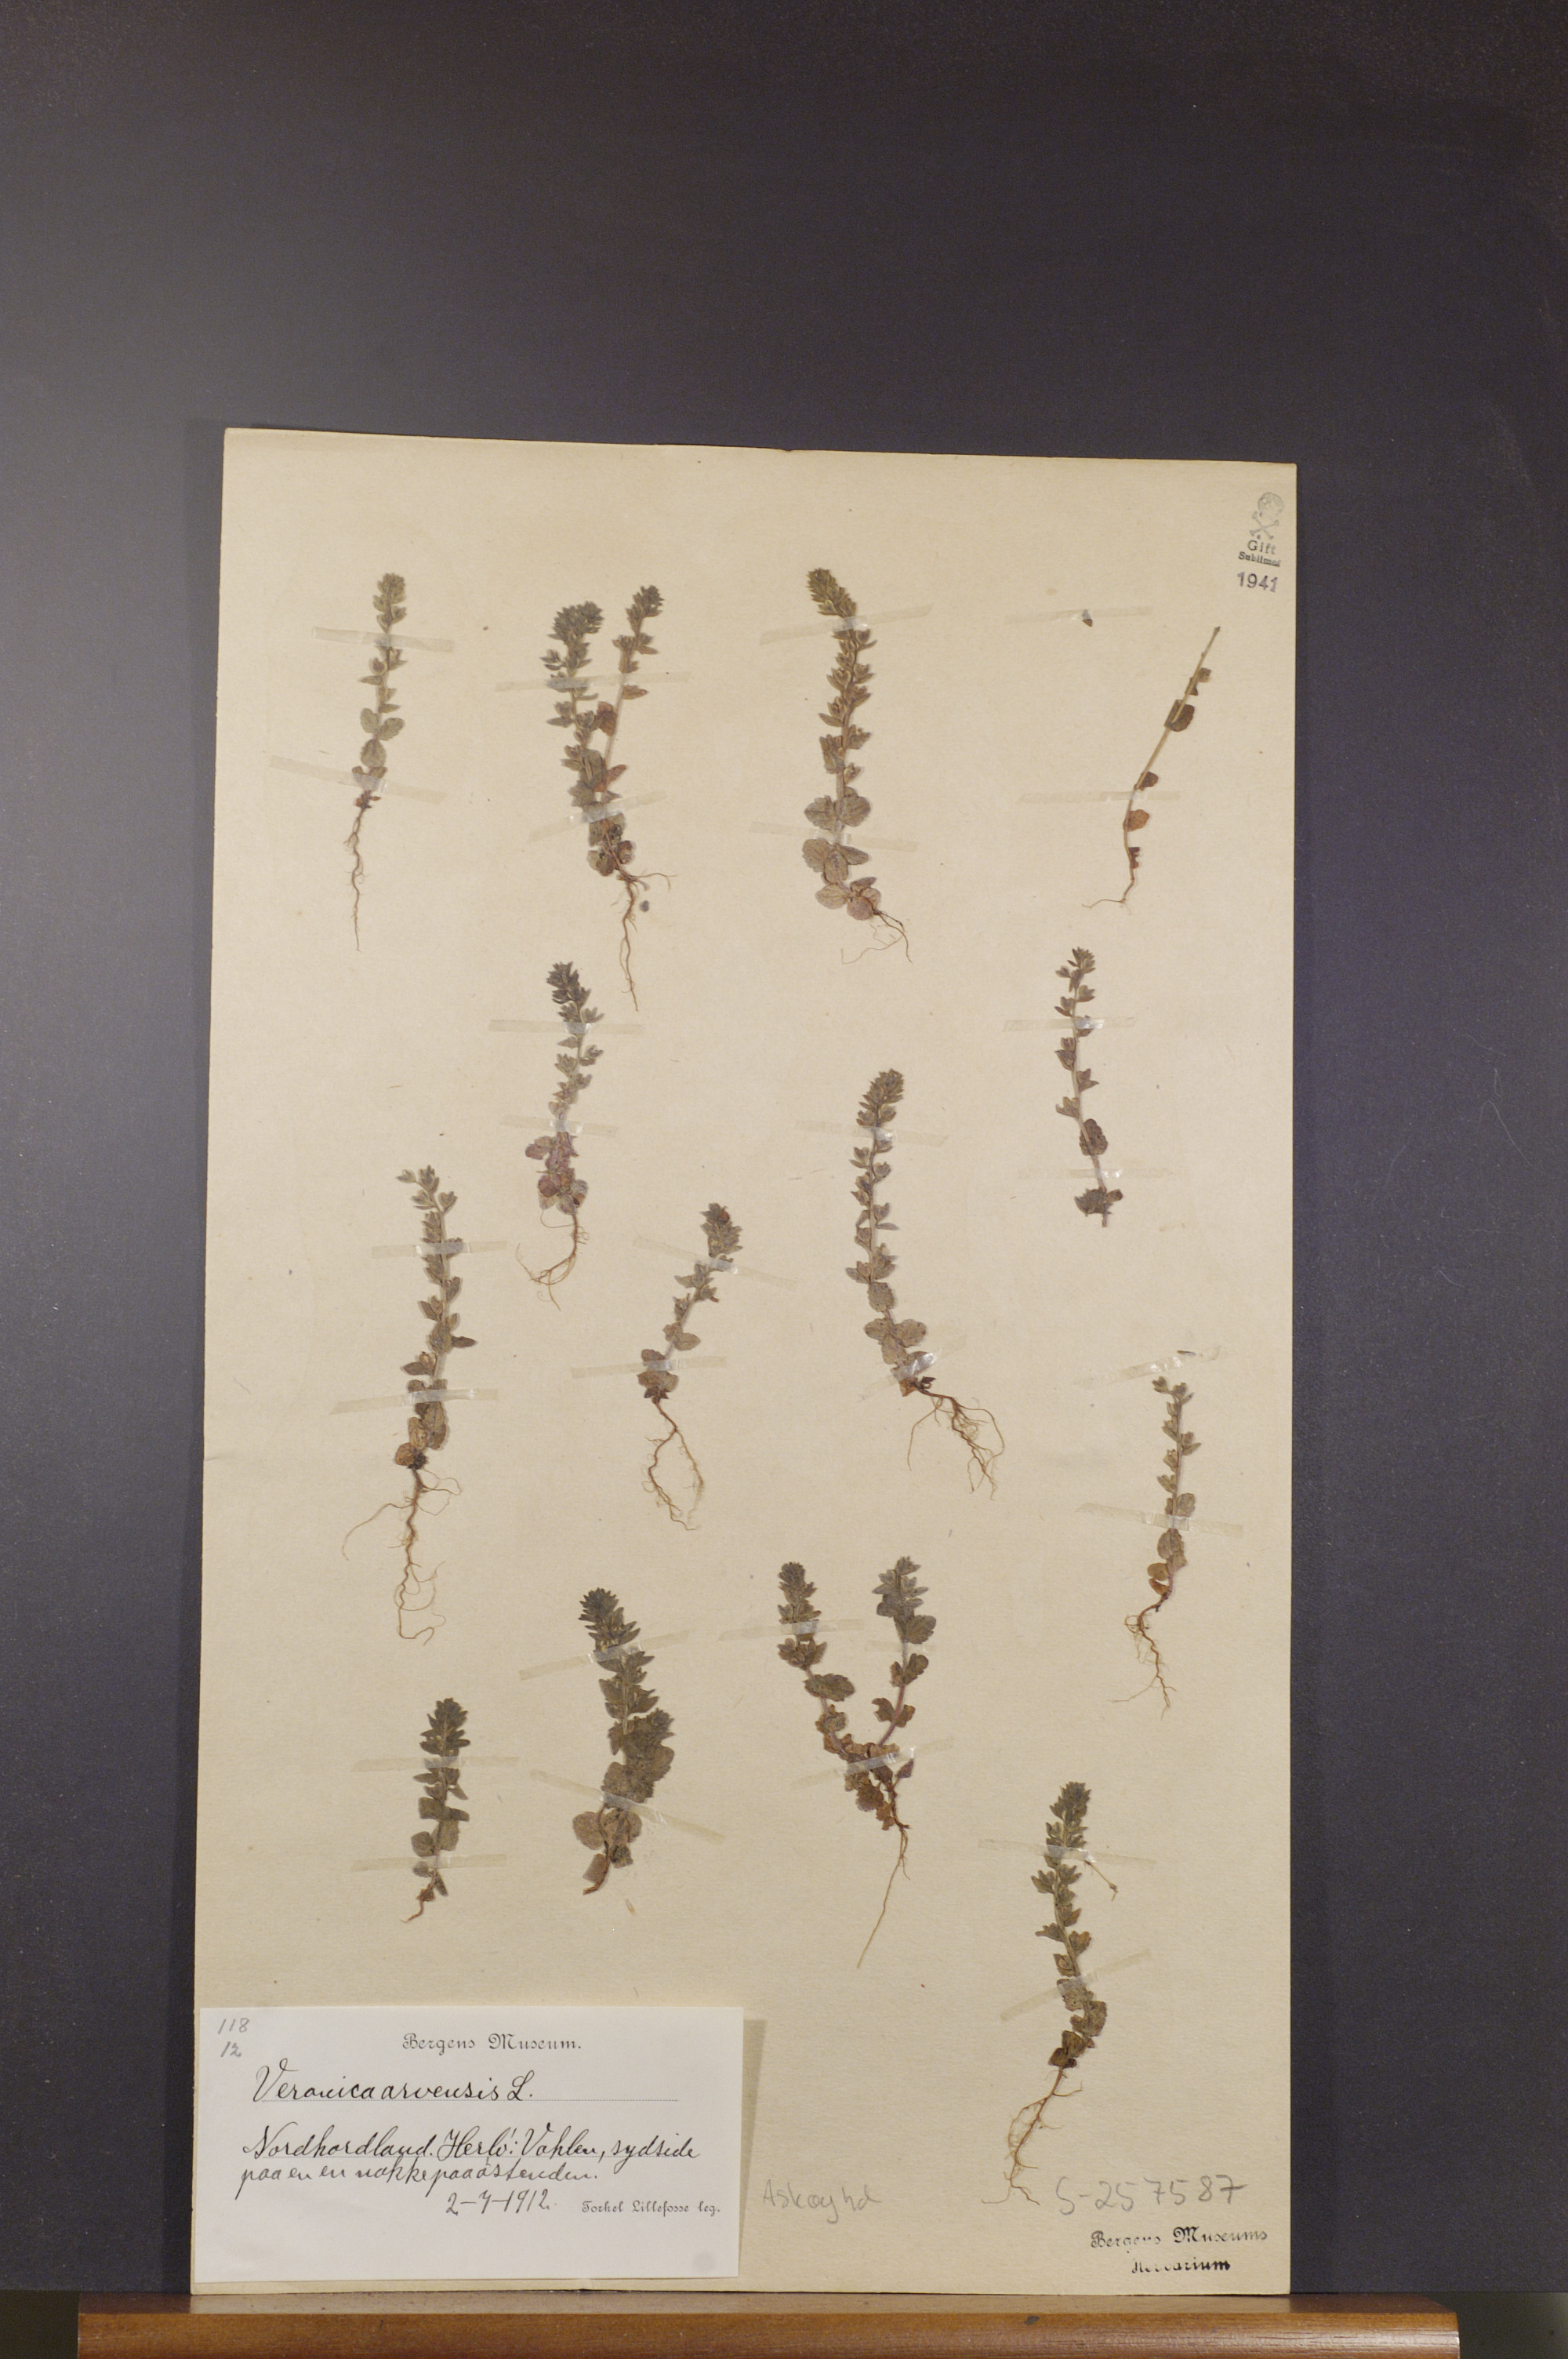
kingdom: Plantae
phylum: Tracheophyta
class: Magnoliopsida
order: Lamiales
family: Plantaginaceae
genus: Veronica
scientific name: Veronica arvensis
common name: Corn speedwell
